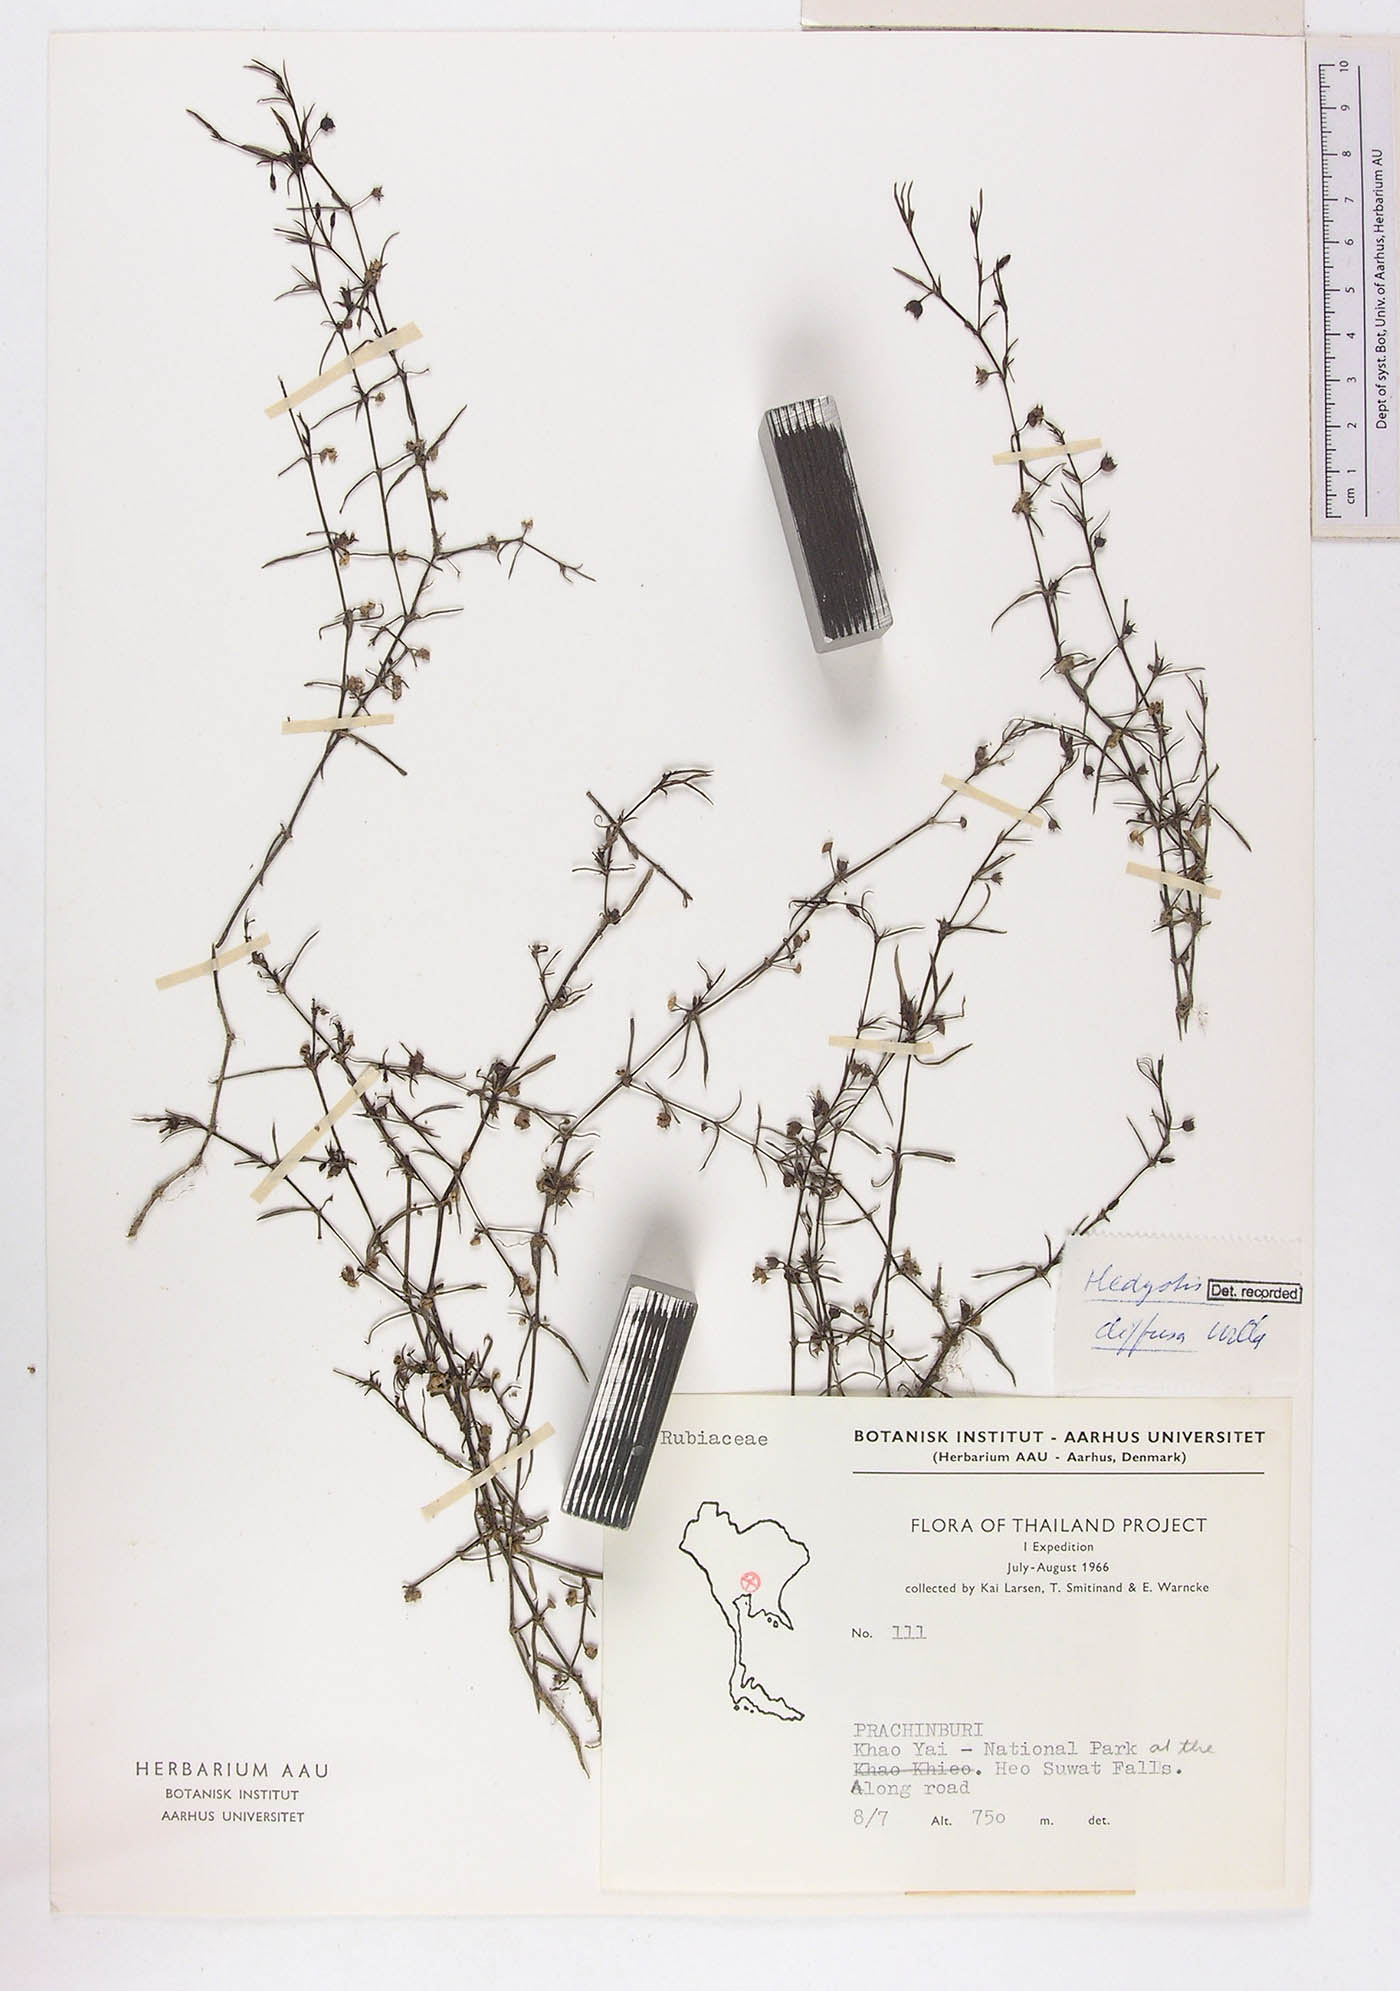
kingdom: Plantae
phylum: Tracheophyta
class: Magnoliopsida
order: Gentianales
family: Rubiaceae
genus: Scleromitrion
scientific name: Scleromitrion diffusum
